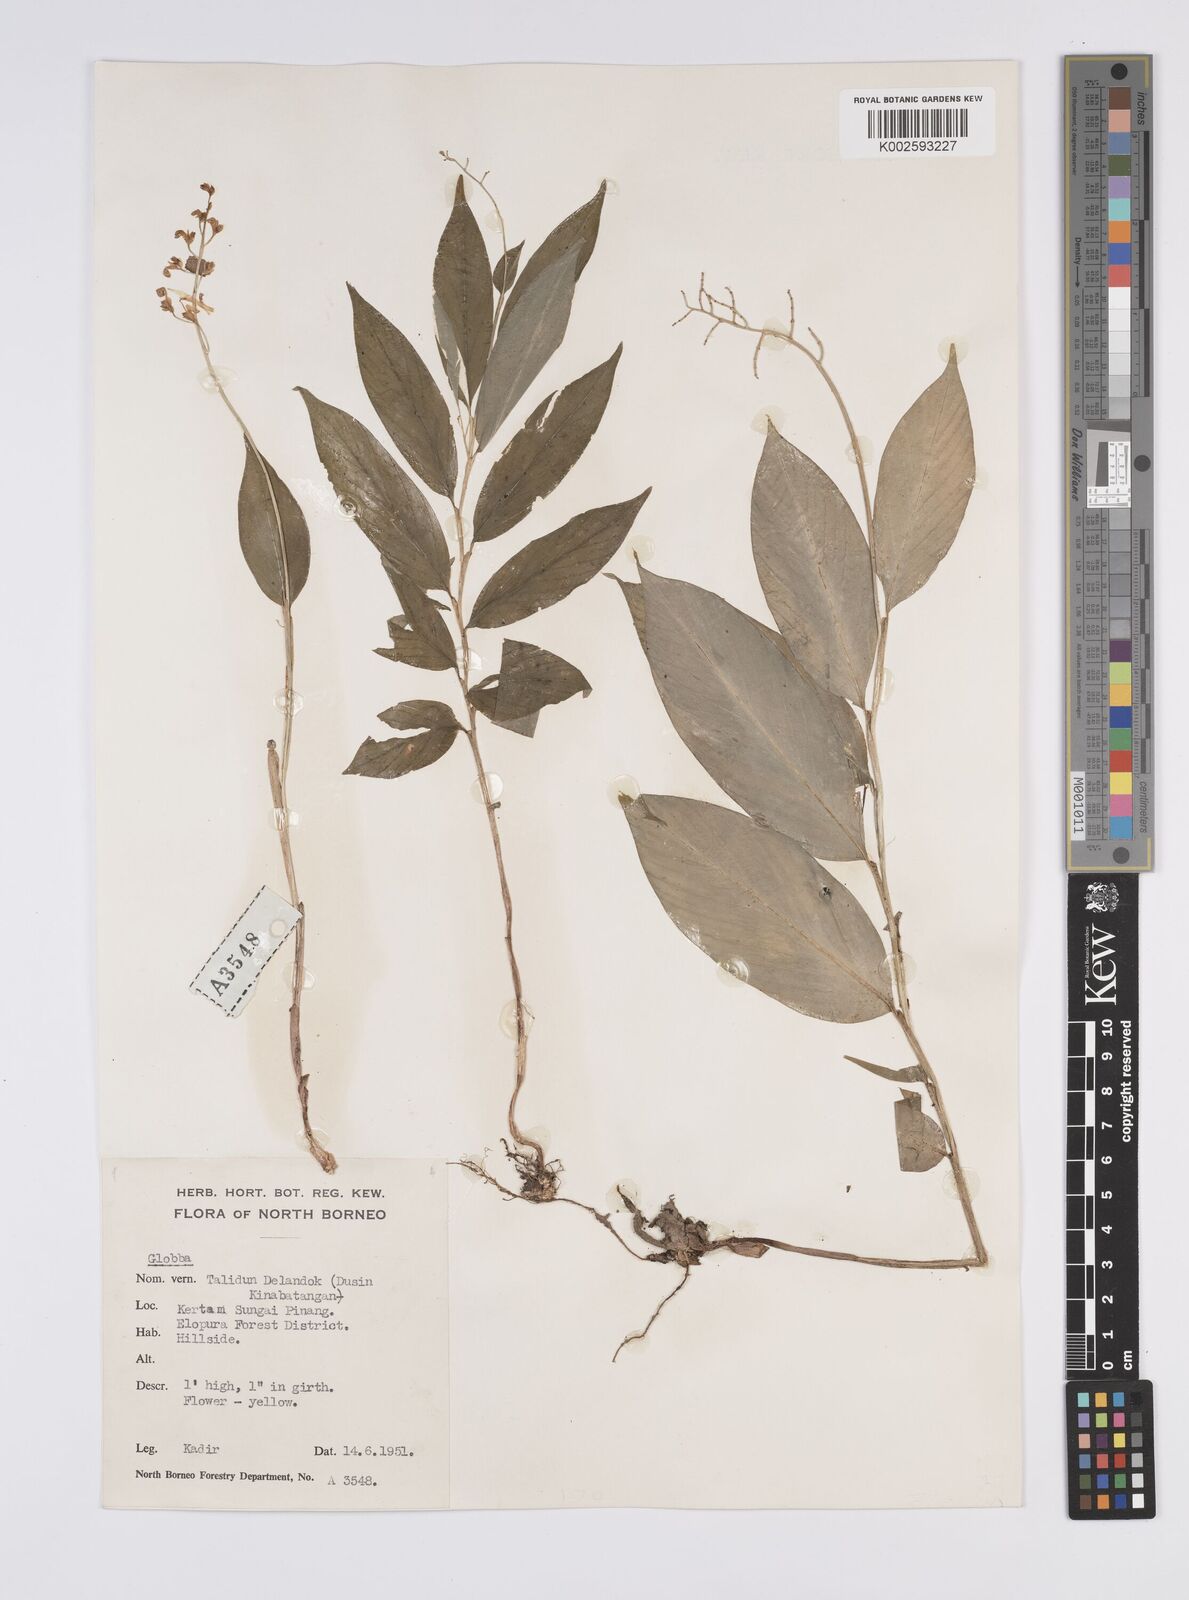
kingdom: Plantae
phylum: Tracheophyta
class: Liliopsida
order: Zingiberales
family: Zingiberaceae
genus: Globba
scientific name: Globba
